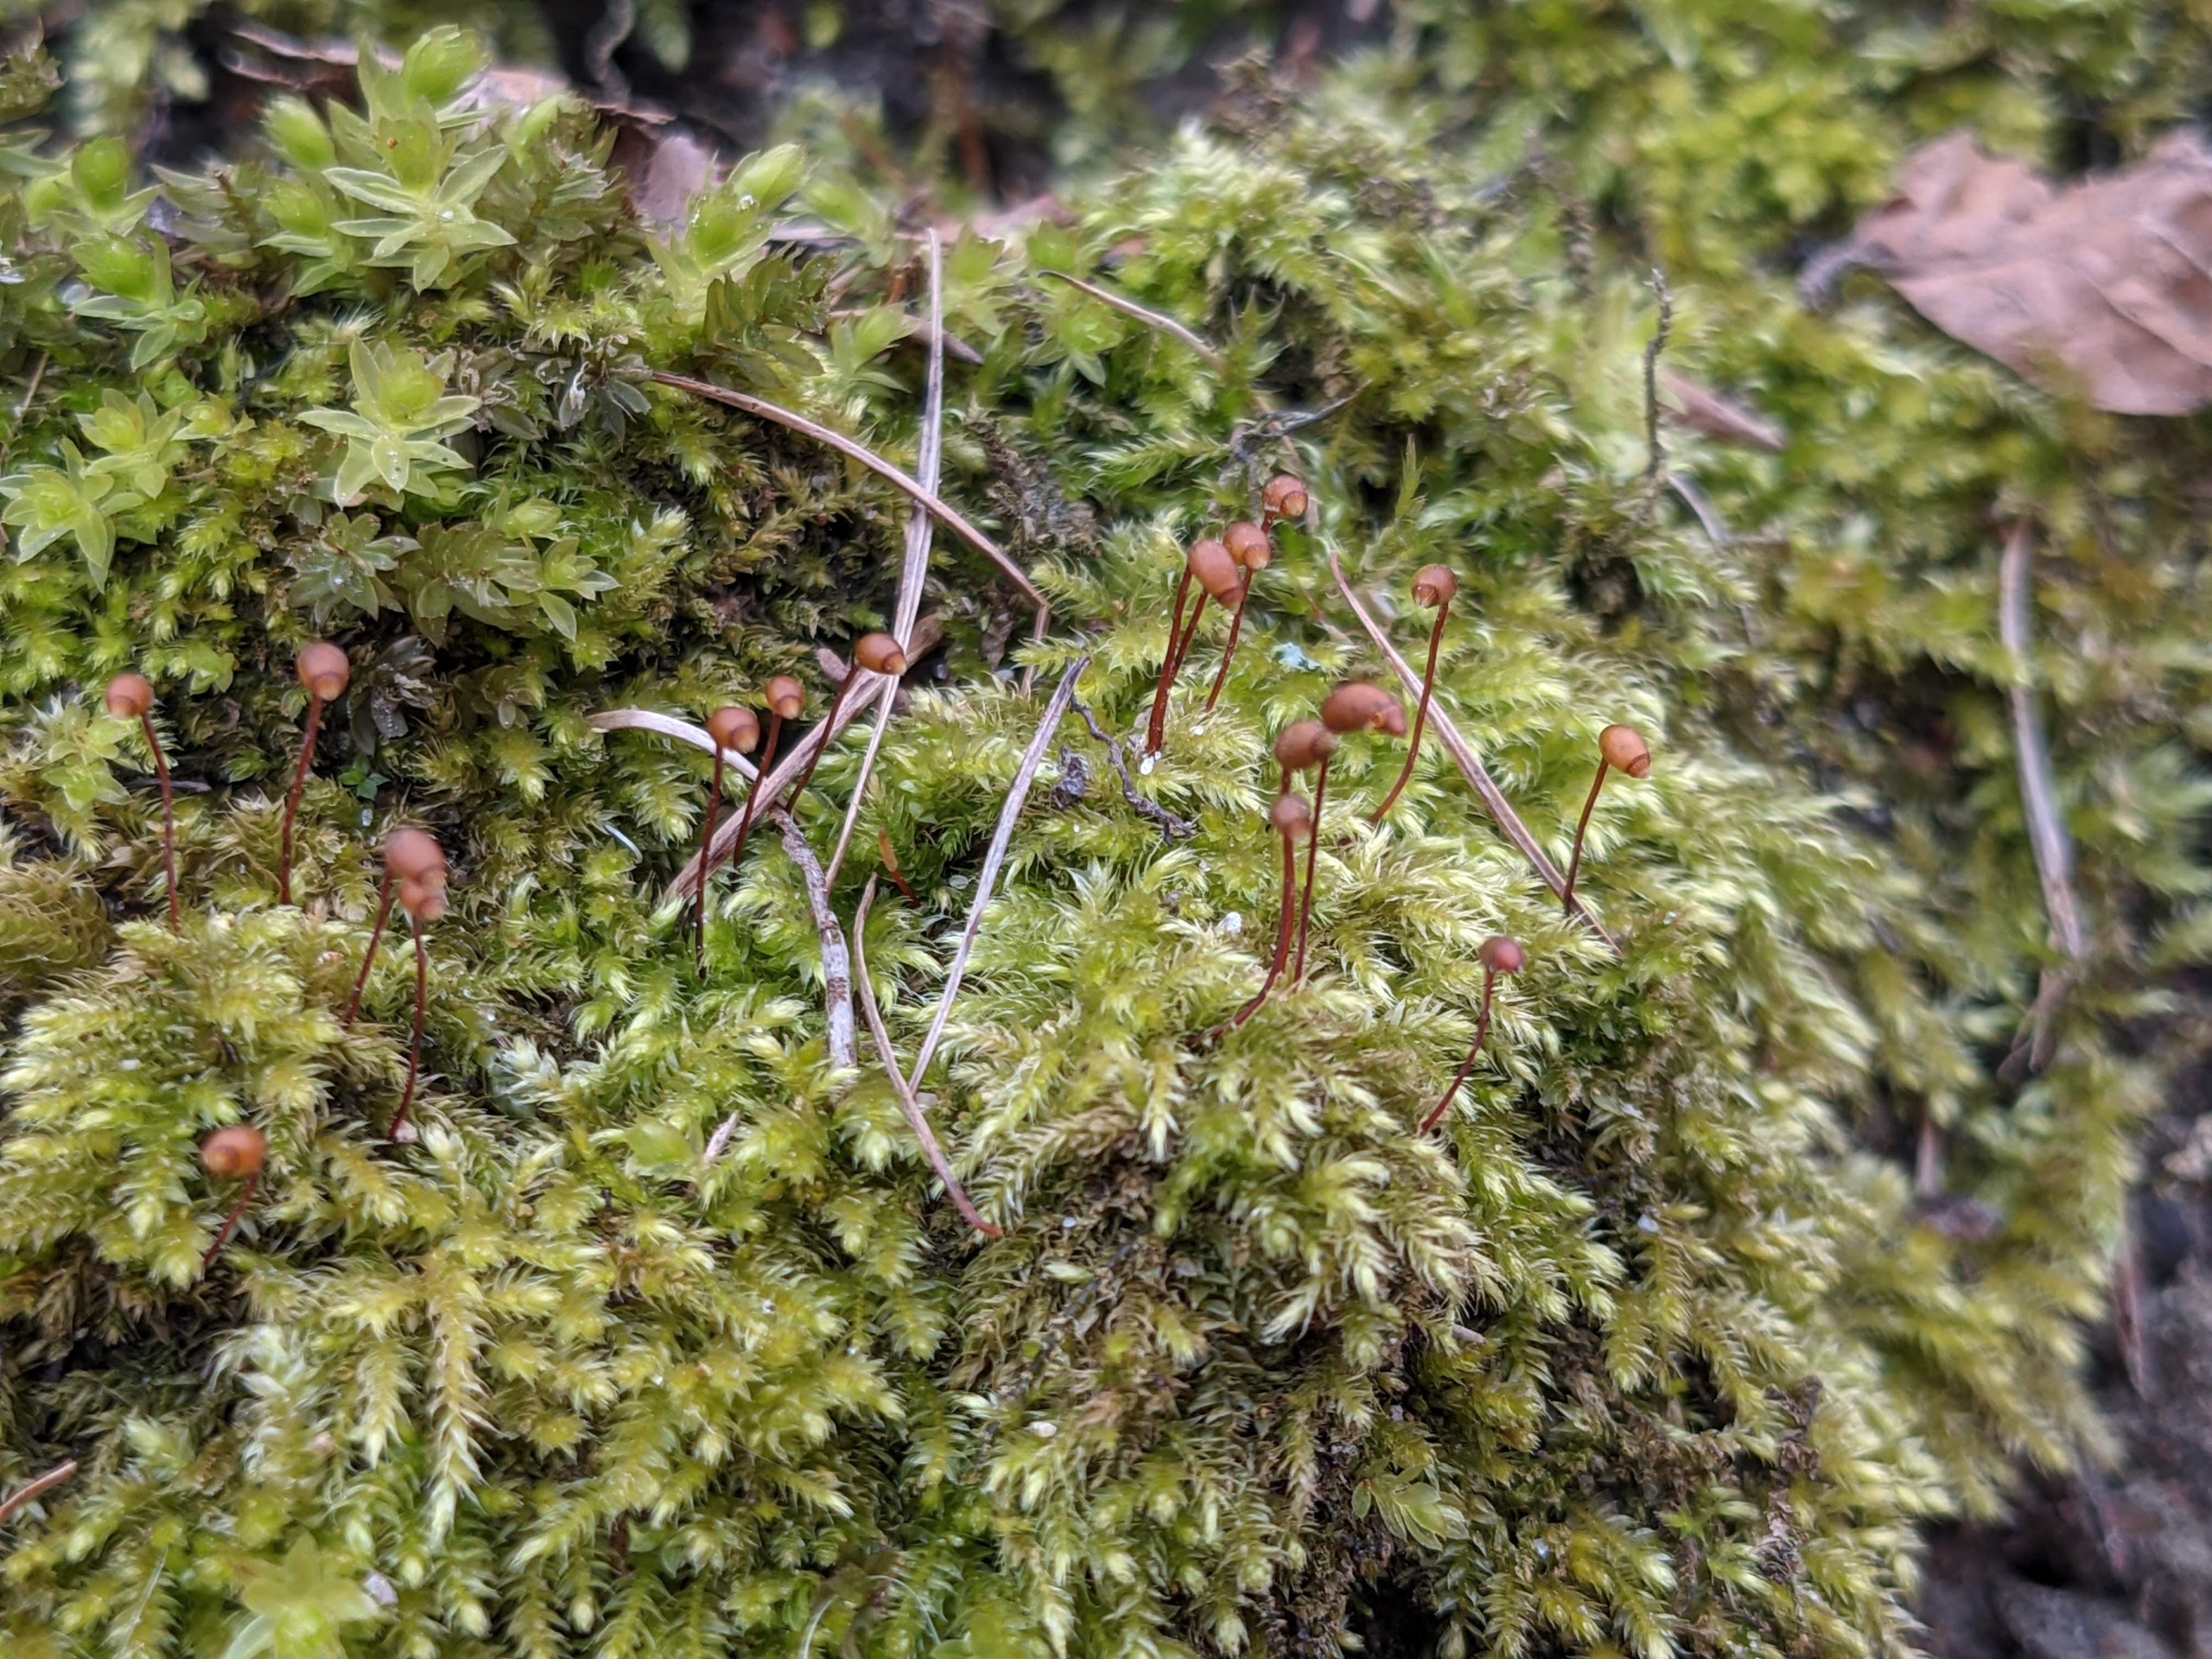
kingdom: Plantae
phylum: Bryophyta
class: Bryopsida
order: Hypnales
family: Brachytheciaceae
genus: Brachytheciastrum
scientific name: Brachytheciastrum velutinum
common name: Fløjls-kortkapsel
